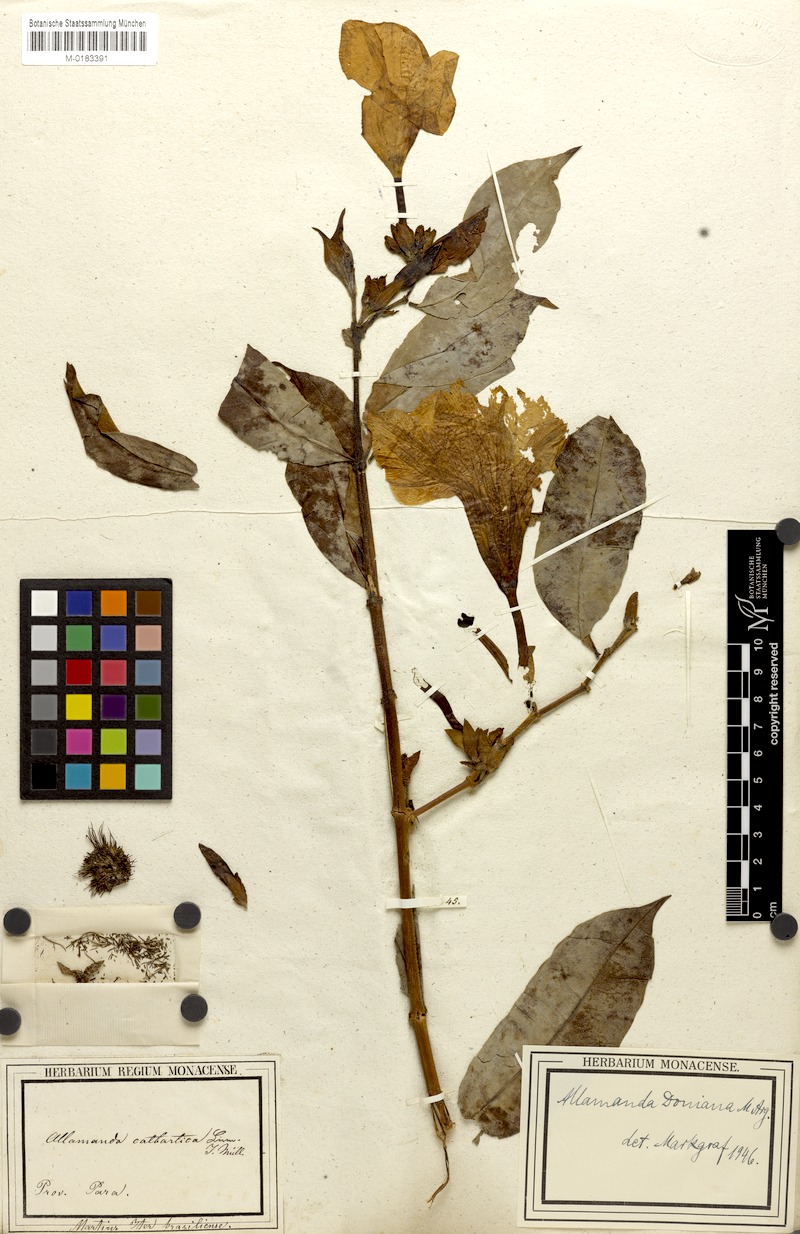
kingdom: Plantae
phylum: Tracheophyta
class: Magnoliopsida
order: Gentianales
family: Apocynaceae
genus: Allamanda
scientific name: Allamanda doniana
